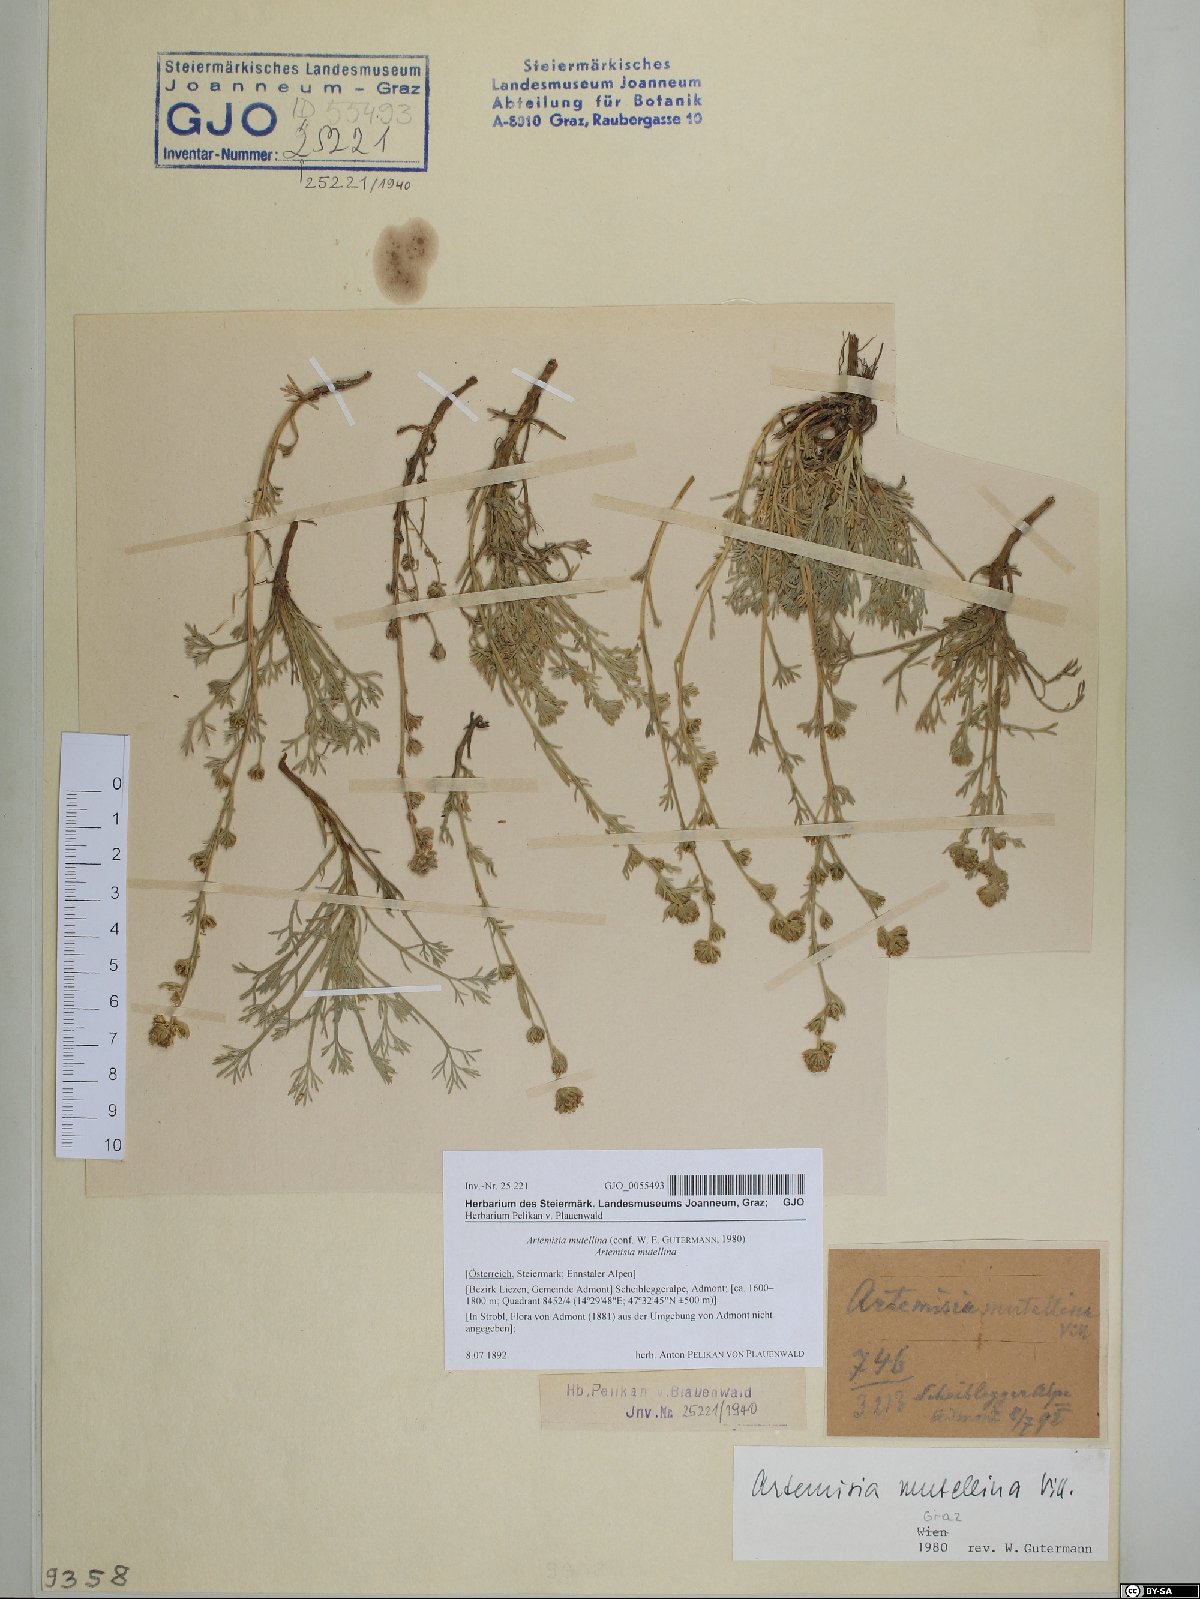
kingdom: Plantae
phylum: Tracheophyta
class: Magnoliopsida
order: Asterales
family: Asteraceae
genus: Artemisia
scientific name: Artemisia mutellina
